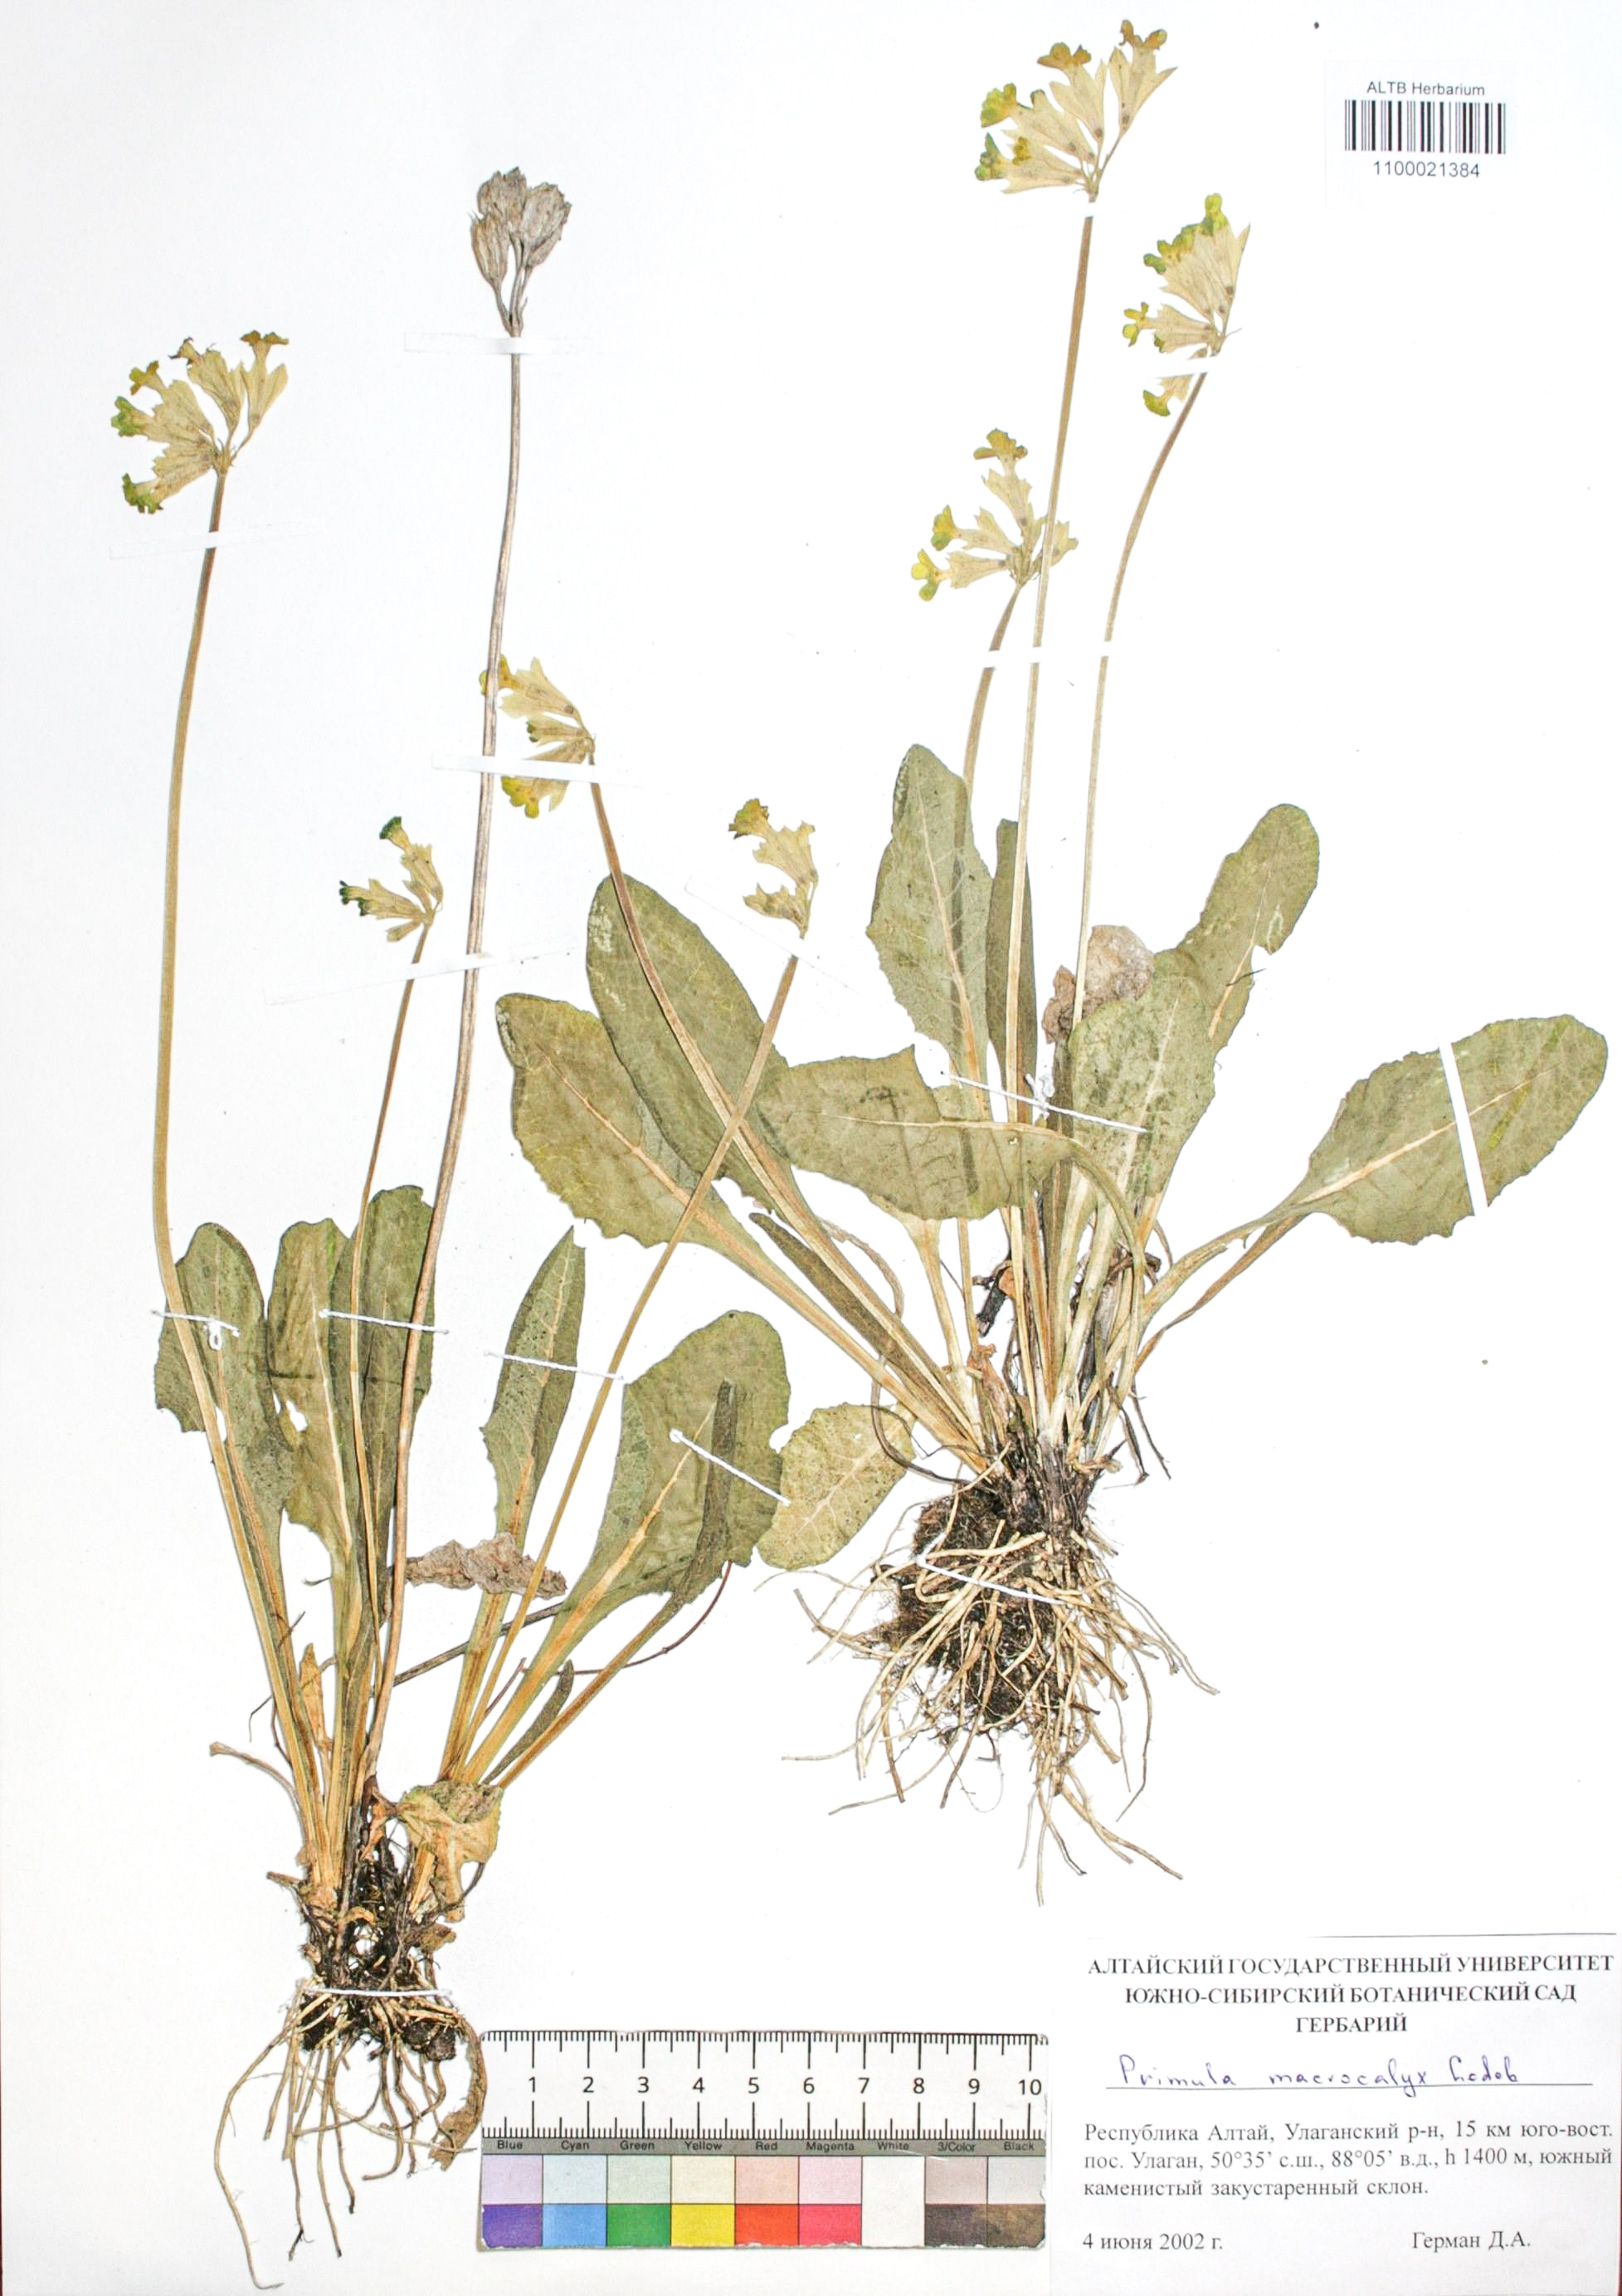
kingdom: Plantae
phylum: Tracheophyta
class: Magnoliopsida
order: Ericales
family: Primulaceae
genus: Primula
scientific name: Primula veris
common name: Cowslip
